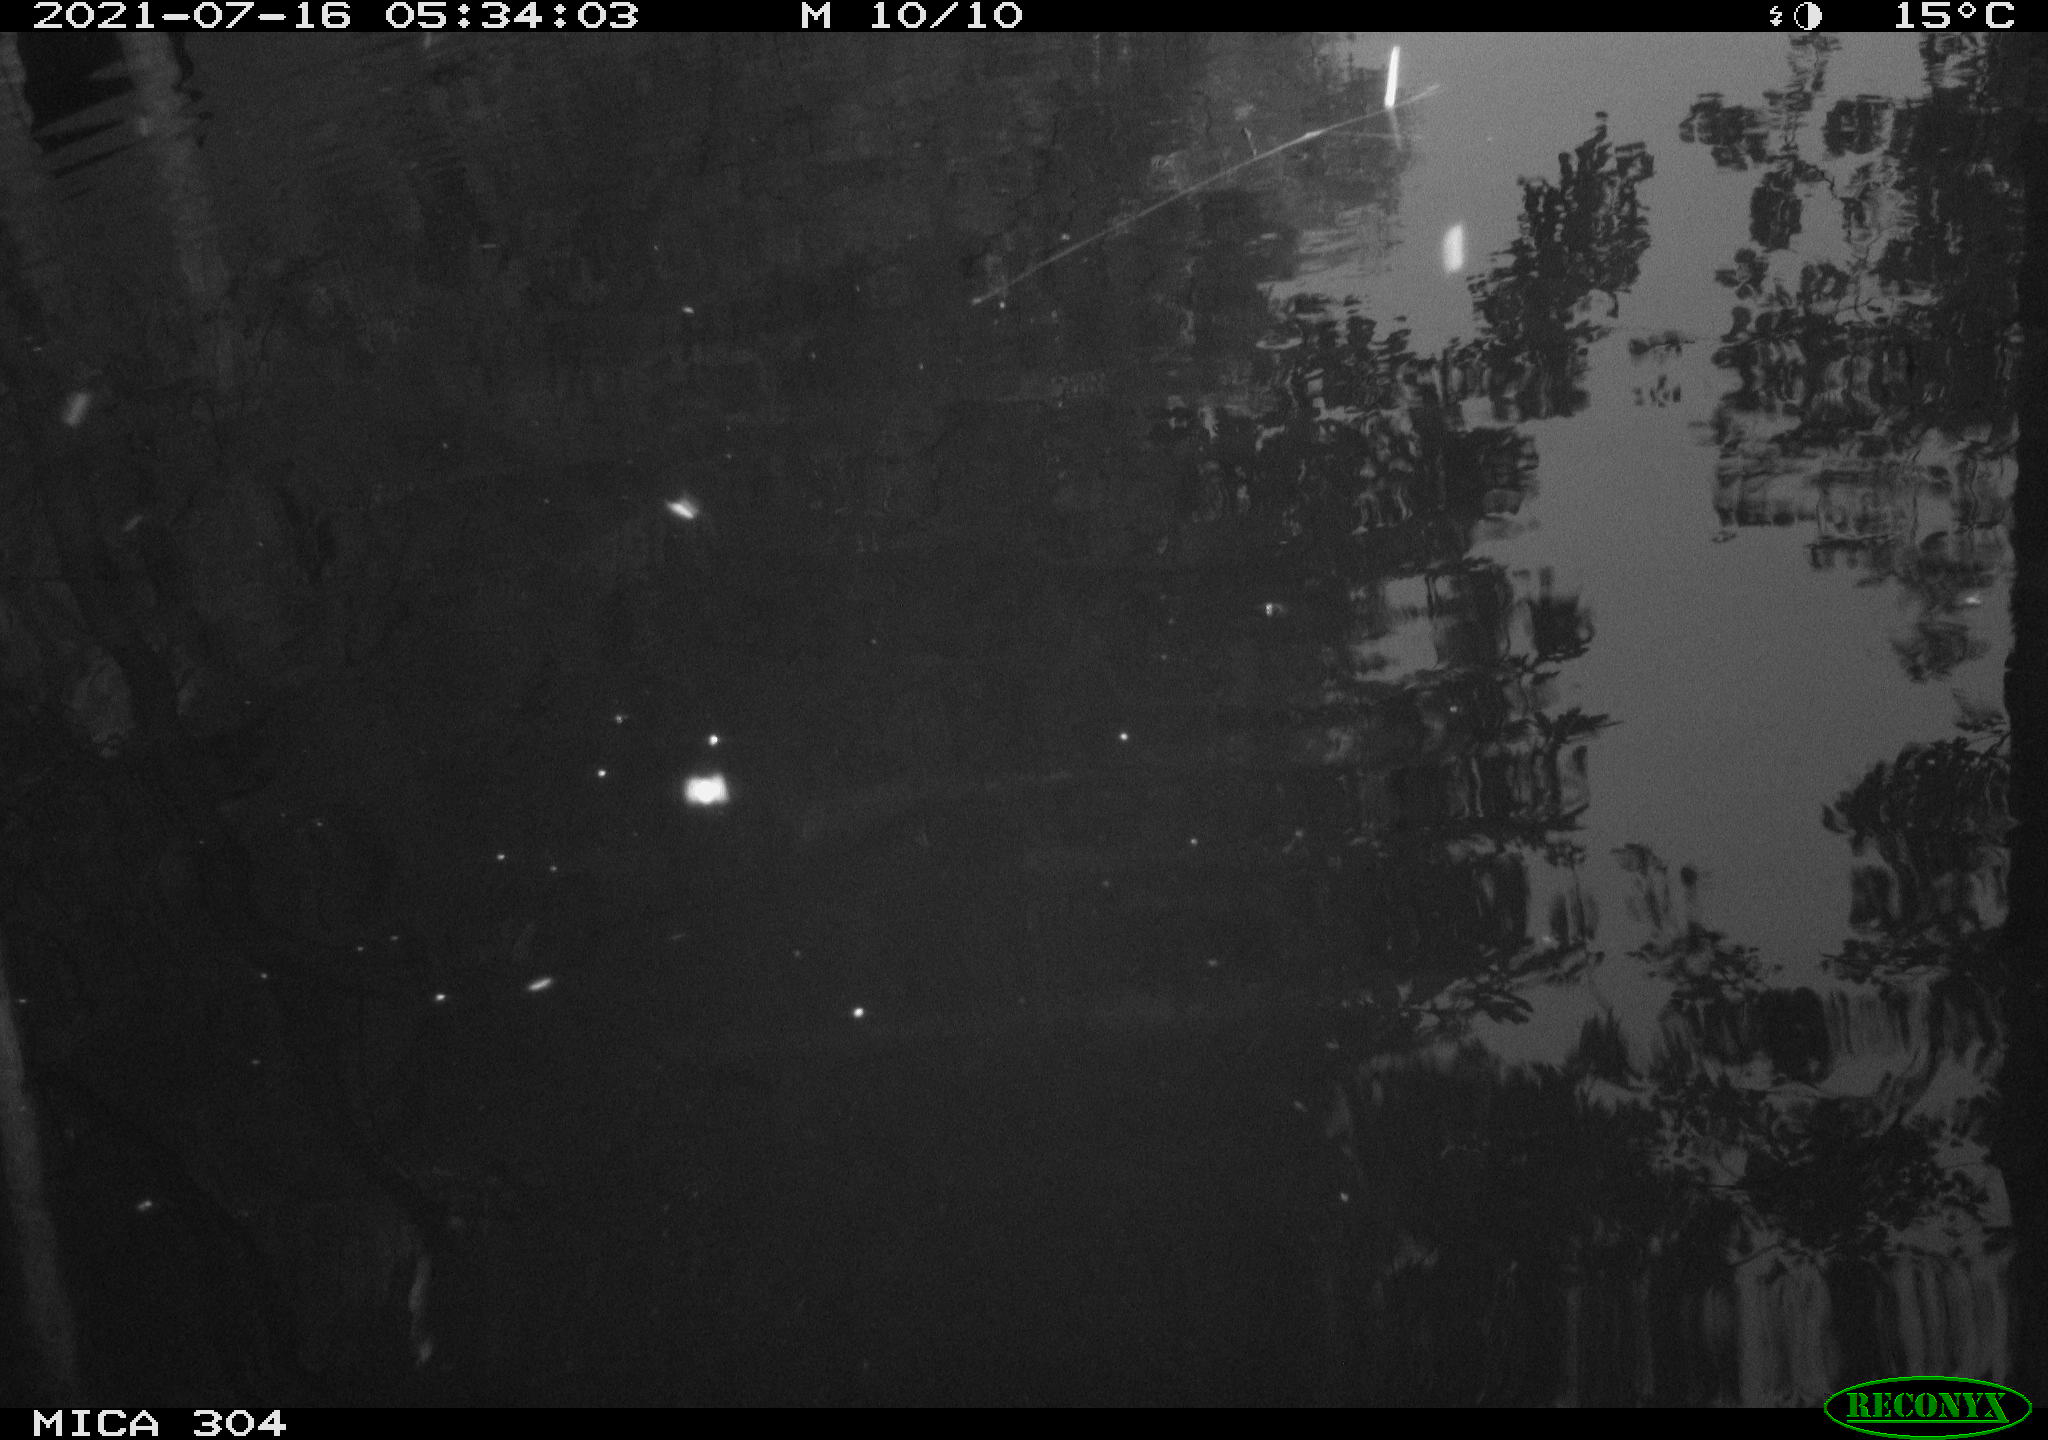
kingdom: Animalia
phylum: Chordata
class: Aves
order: Anseriformes
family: Anatidae
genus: Anas
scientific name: Anas platyrhynchos
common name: Mallard
